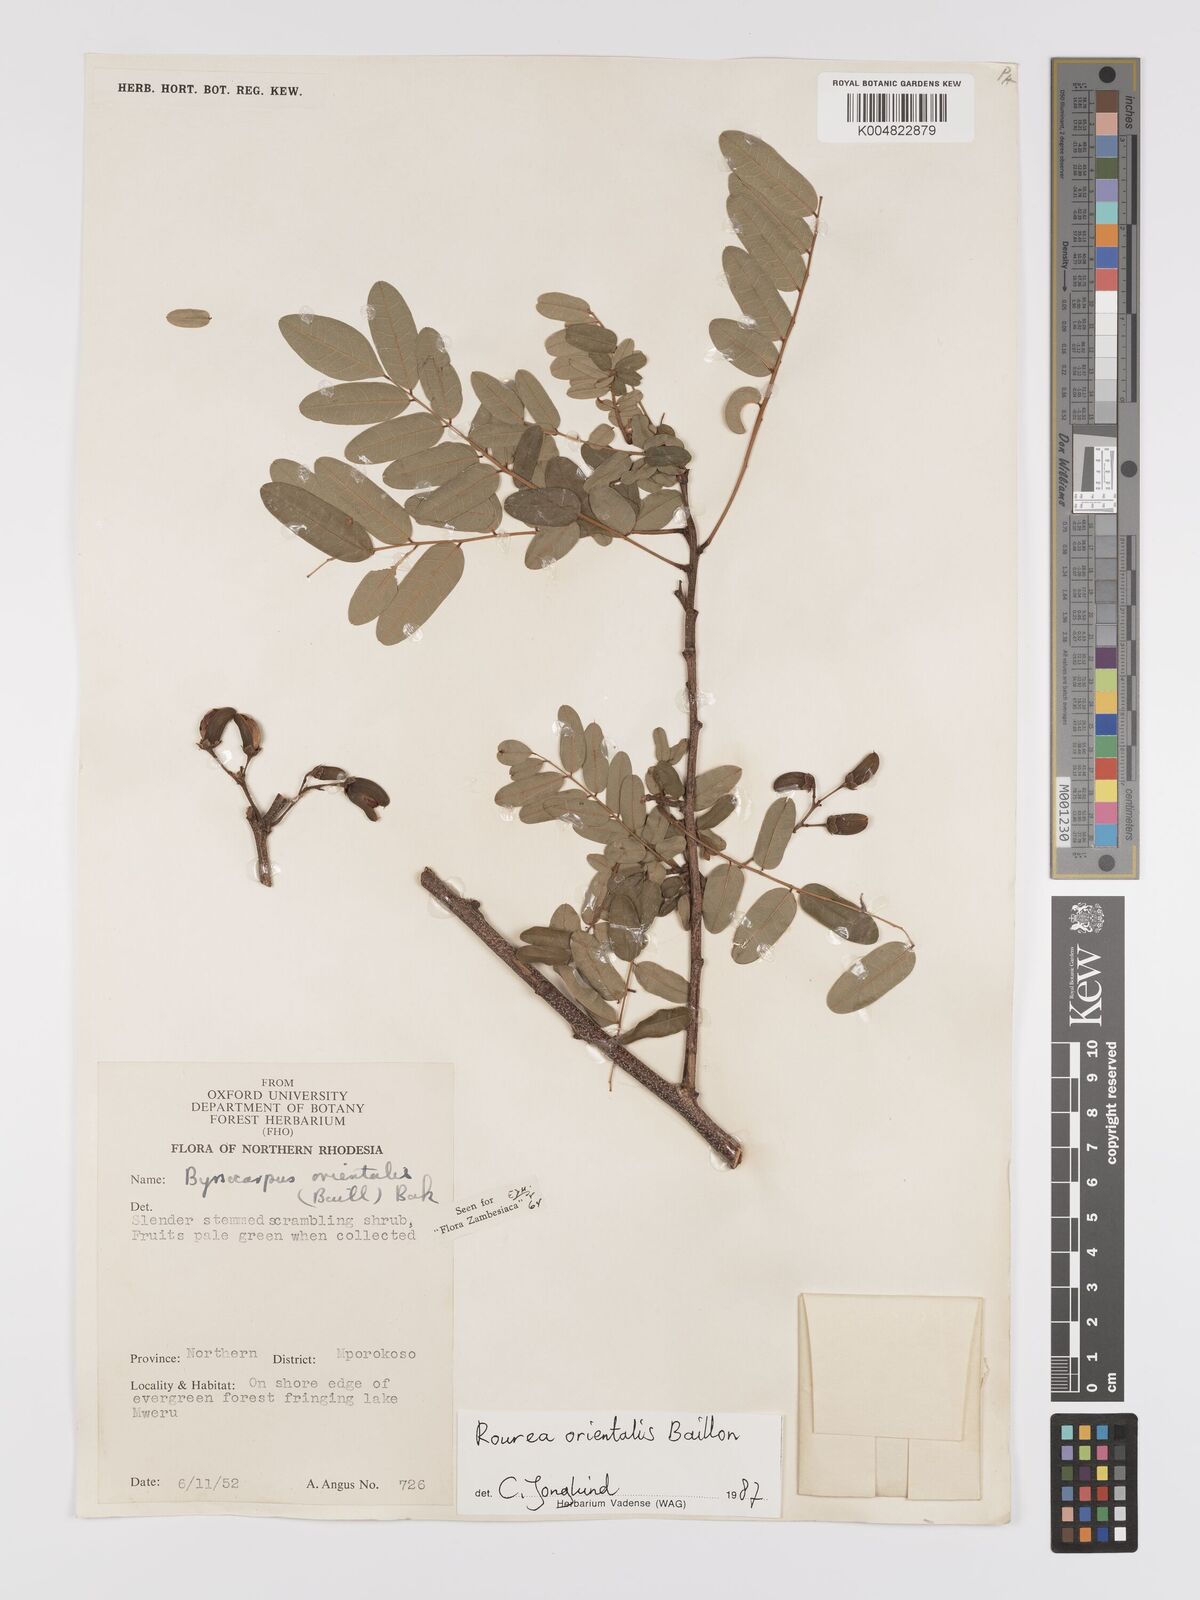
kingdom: Plantae
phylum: Tracheophyta
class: Magnoliopsida
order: Oxalidales
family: Connaraceae
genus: Rourea
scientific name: Rourea orientalis
